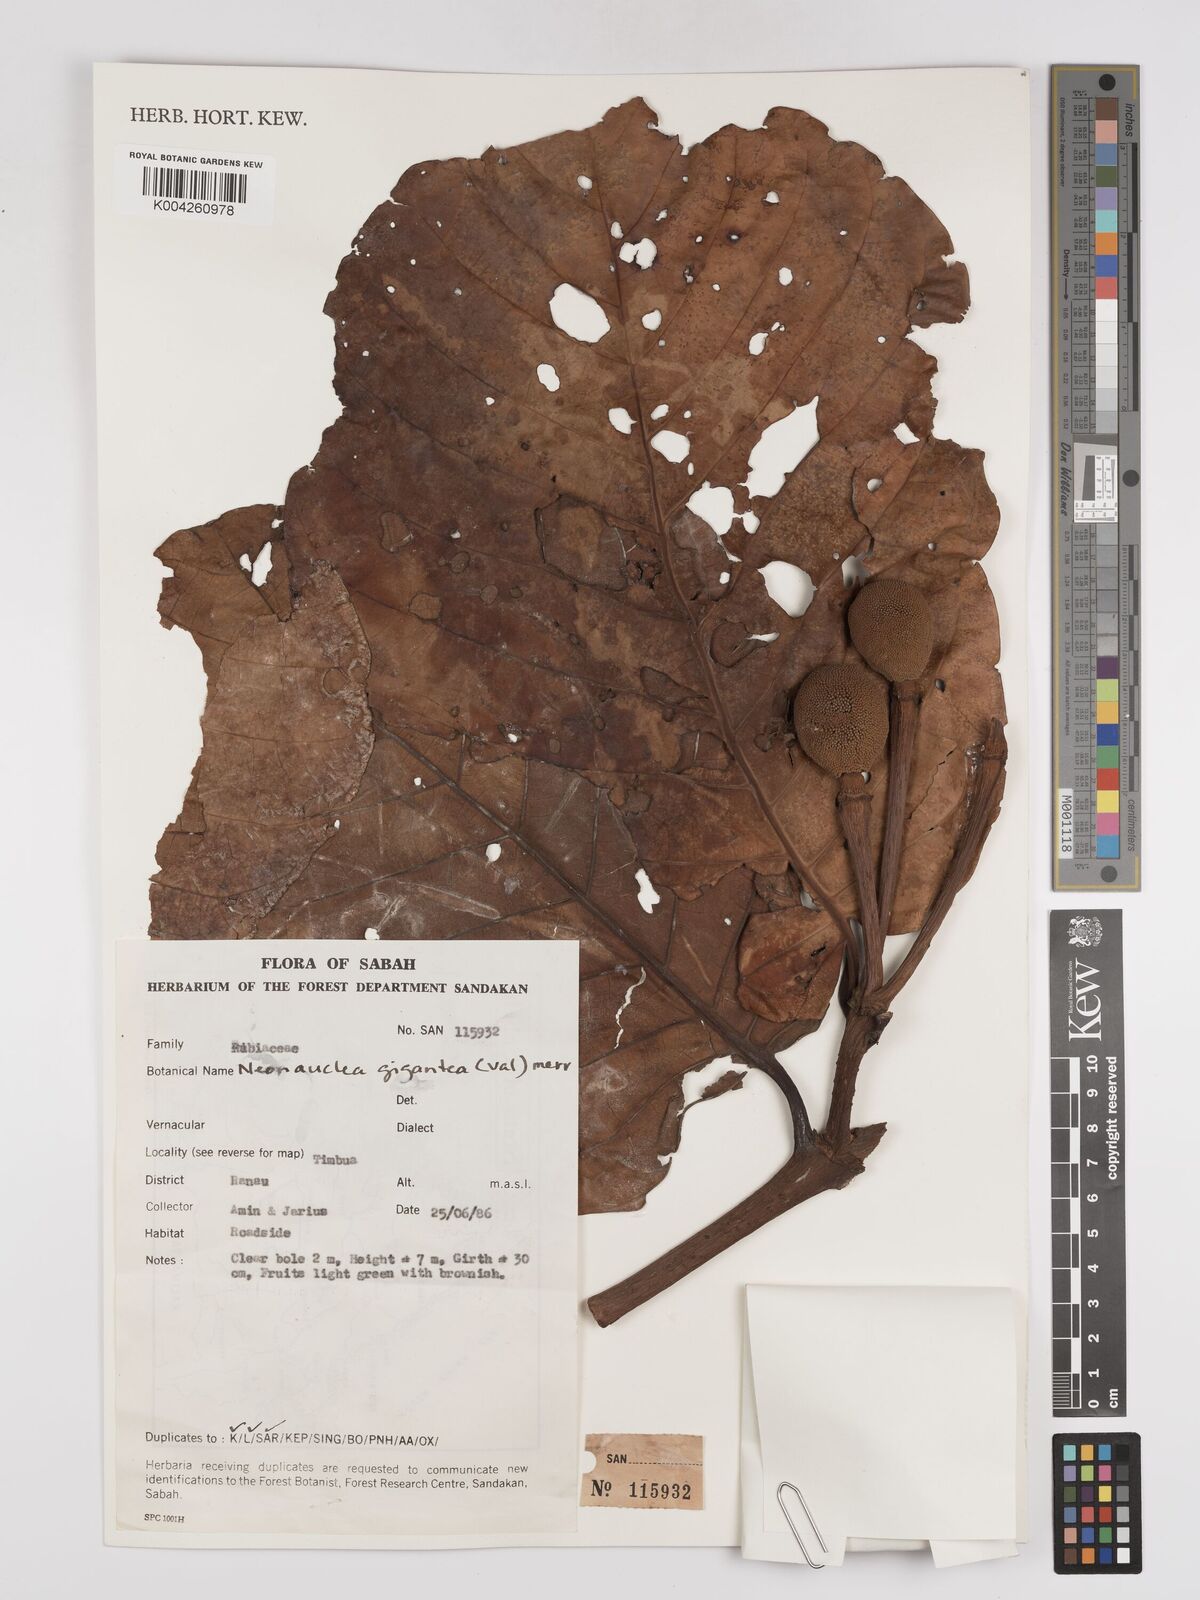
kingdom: Plantae
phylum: Tracheophyta
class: Magnoliopsida
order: Gentianales
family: Rubiaceae
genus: Neonauclea
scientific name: Neonauclea gigantea
